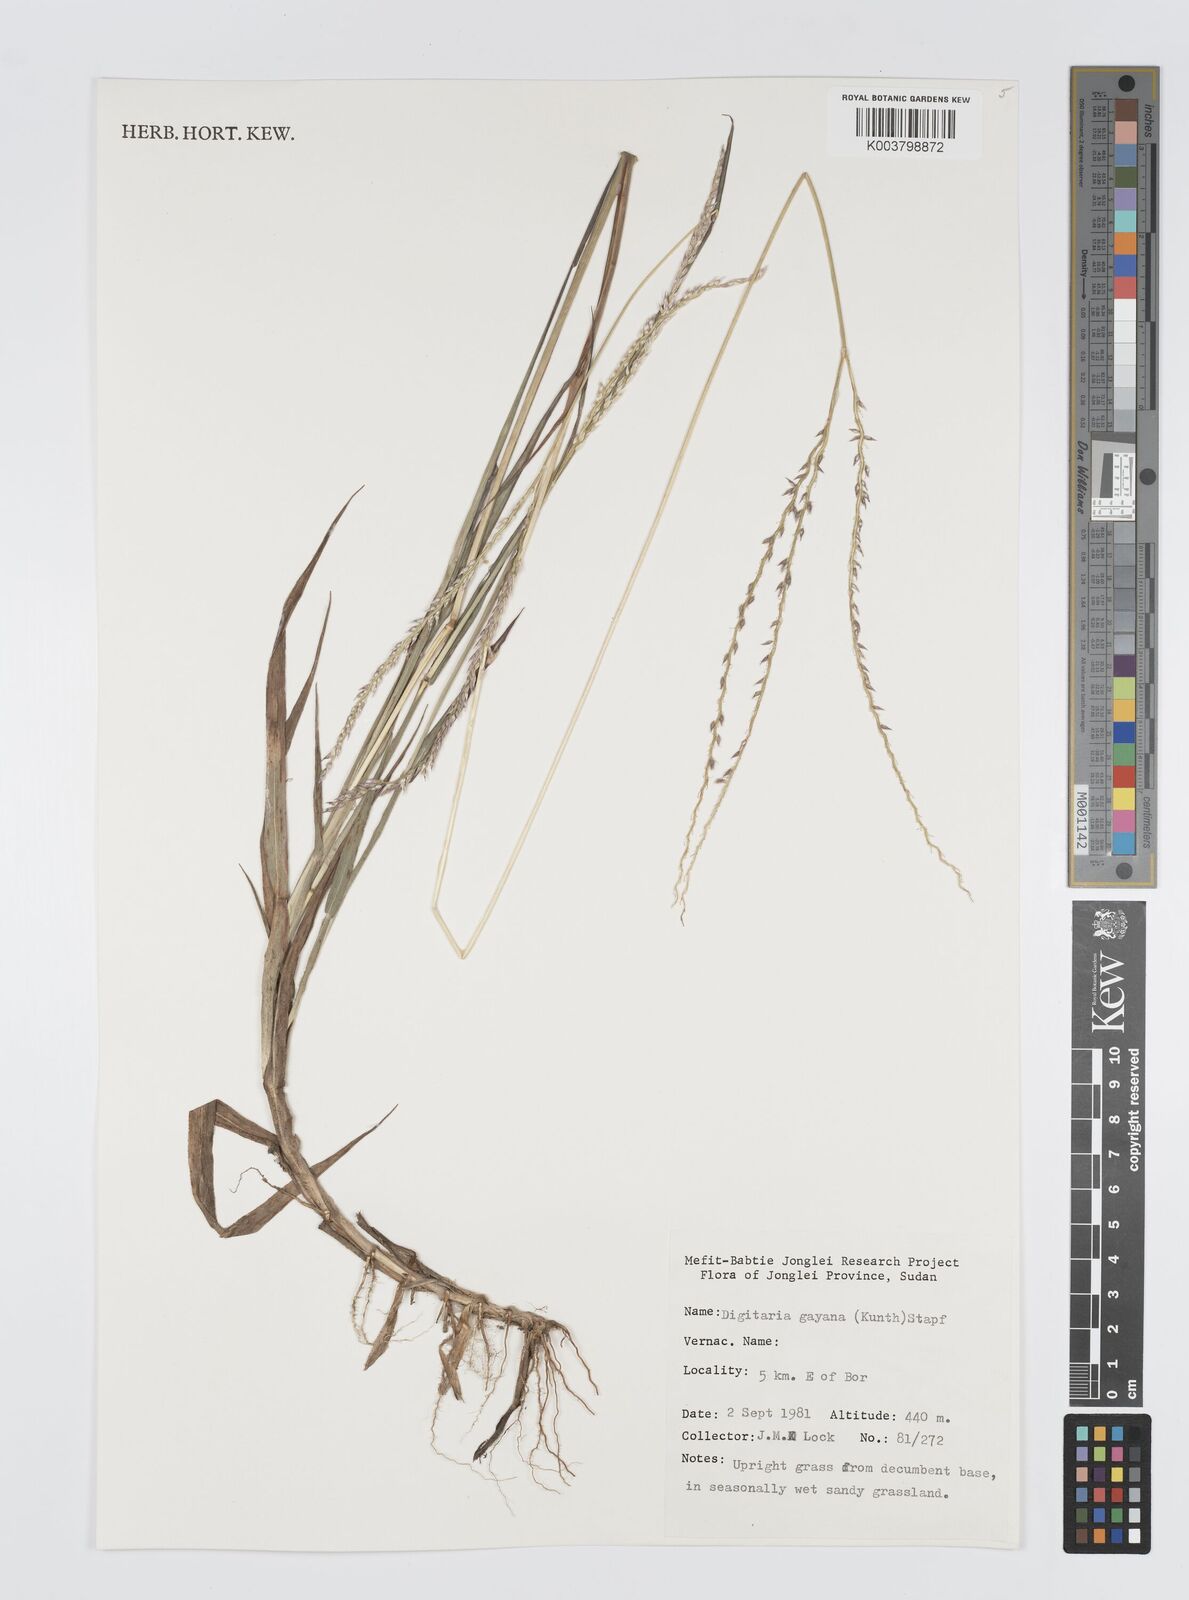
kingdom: Plantae
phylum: Tracheophyta
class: Liliopsida
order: Poales
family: Poaceae
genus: Digitaria
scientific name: Digitaria gayana
